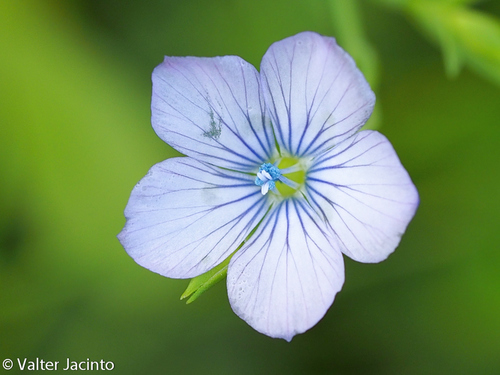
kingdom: Plantae
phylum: Tracheophyta
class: Magnoliopsida
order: Malpighiales
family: Linaceae
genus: Linum
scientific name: Linum bienne
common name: Pale flax
